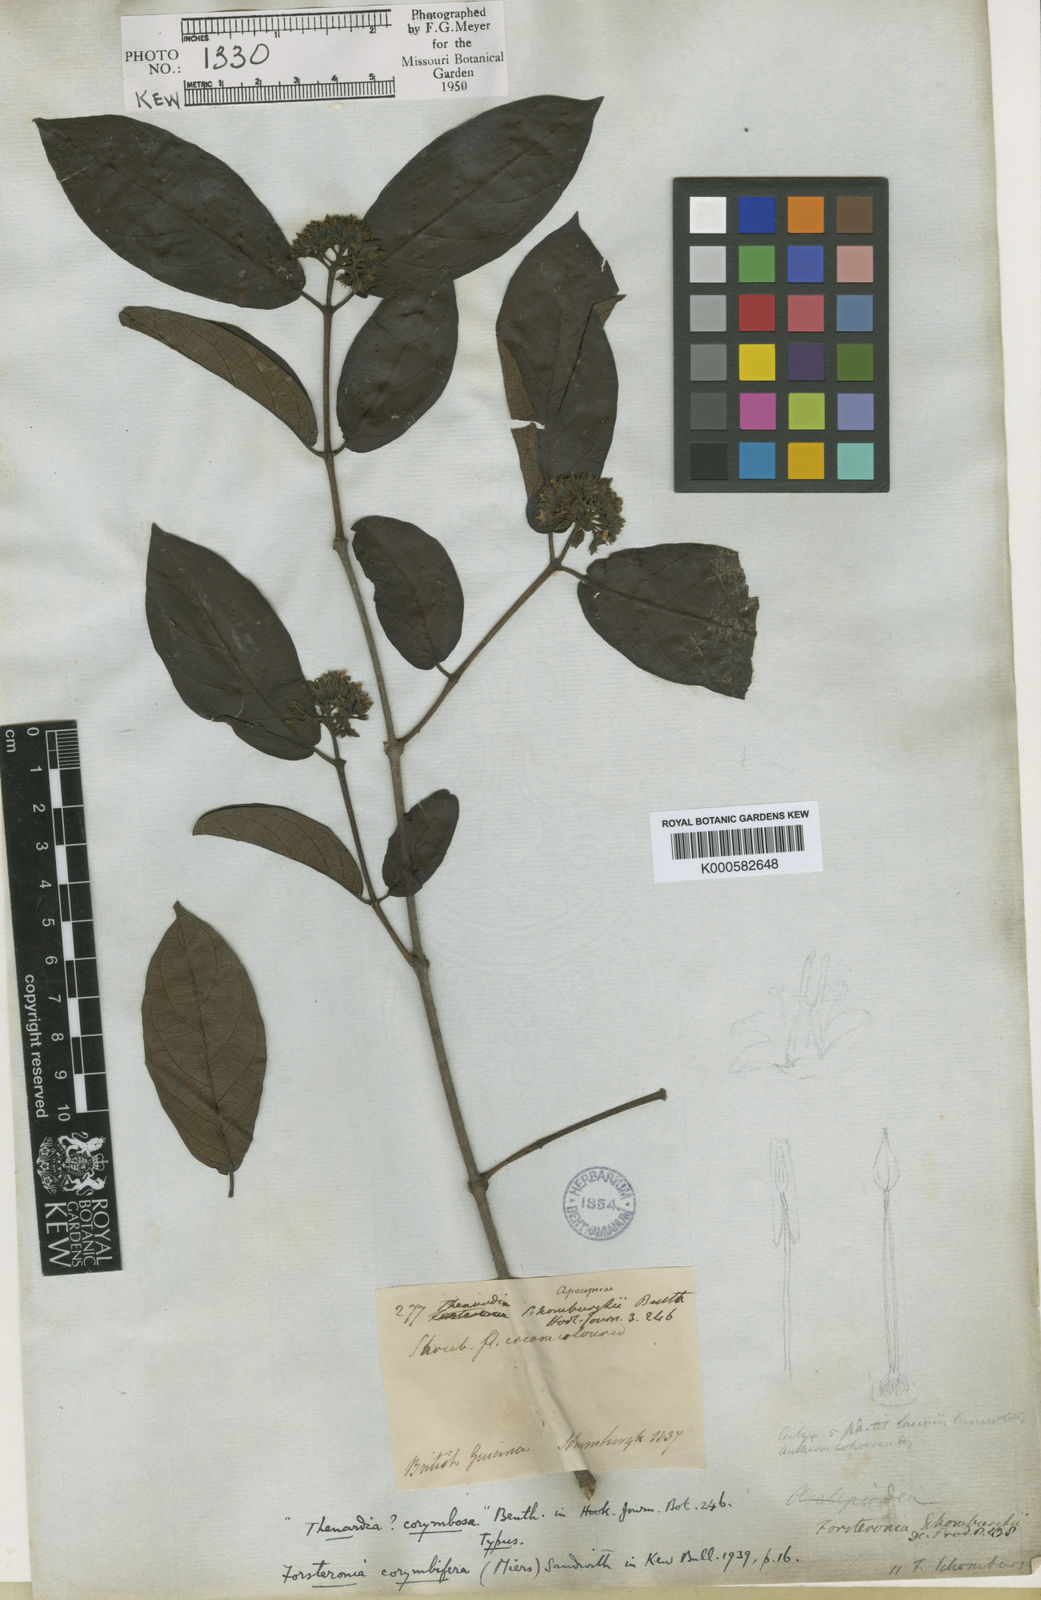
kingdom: Plantae
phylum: Tracheophyta
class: Magnoliopsida
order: Gentianales
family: Apocynaceae
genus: Forsteronia
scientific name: Forsteronia schomburgkii
